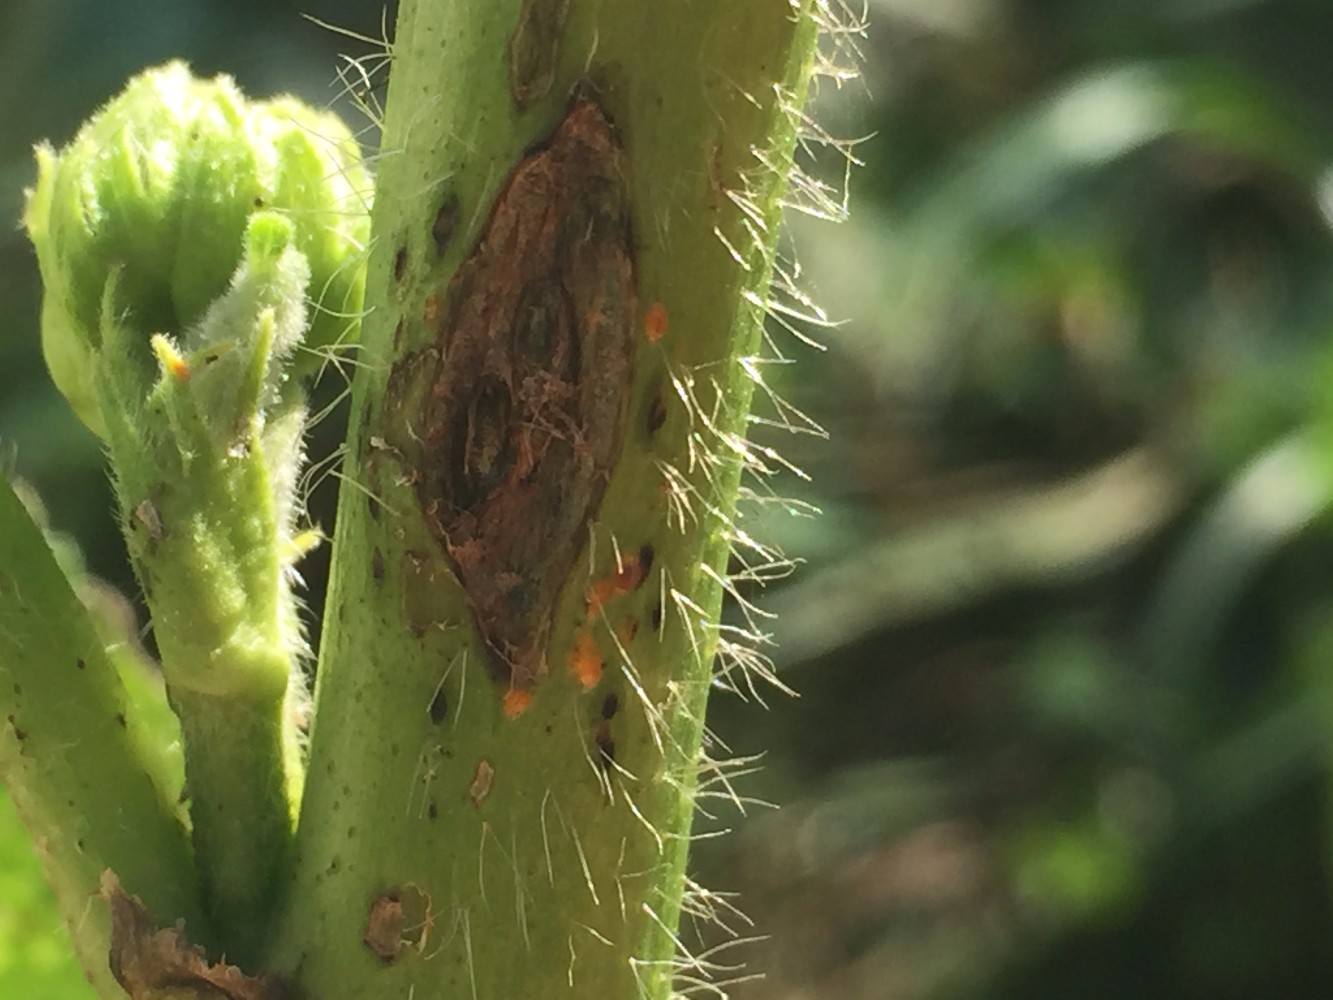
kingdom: Fungi
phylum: Basidiomycota
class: Pucciniomycetes
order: Pucciniales
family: Pucciniaceae
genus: Puccinia
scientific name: Puccinia malvacearum
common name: stokrose-tvecellerust
